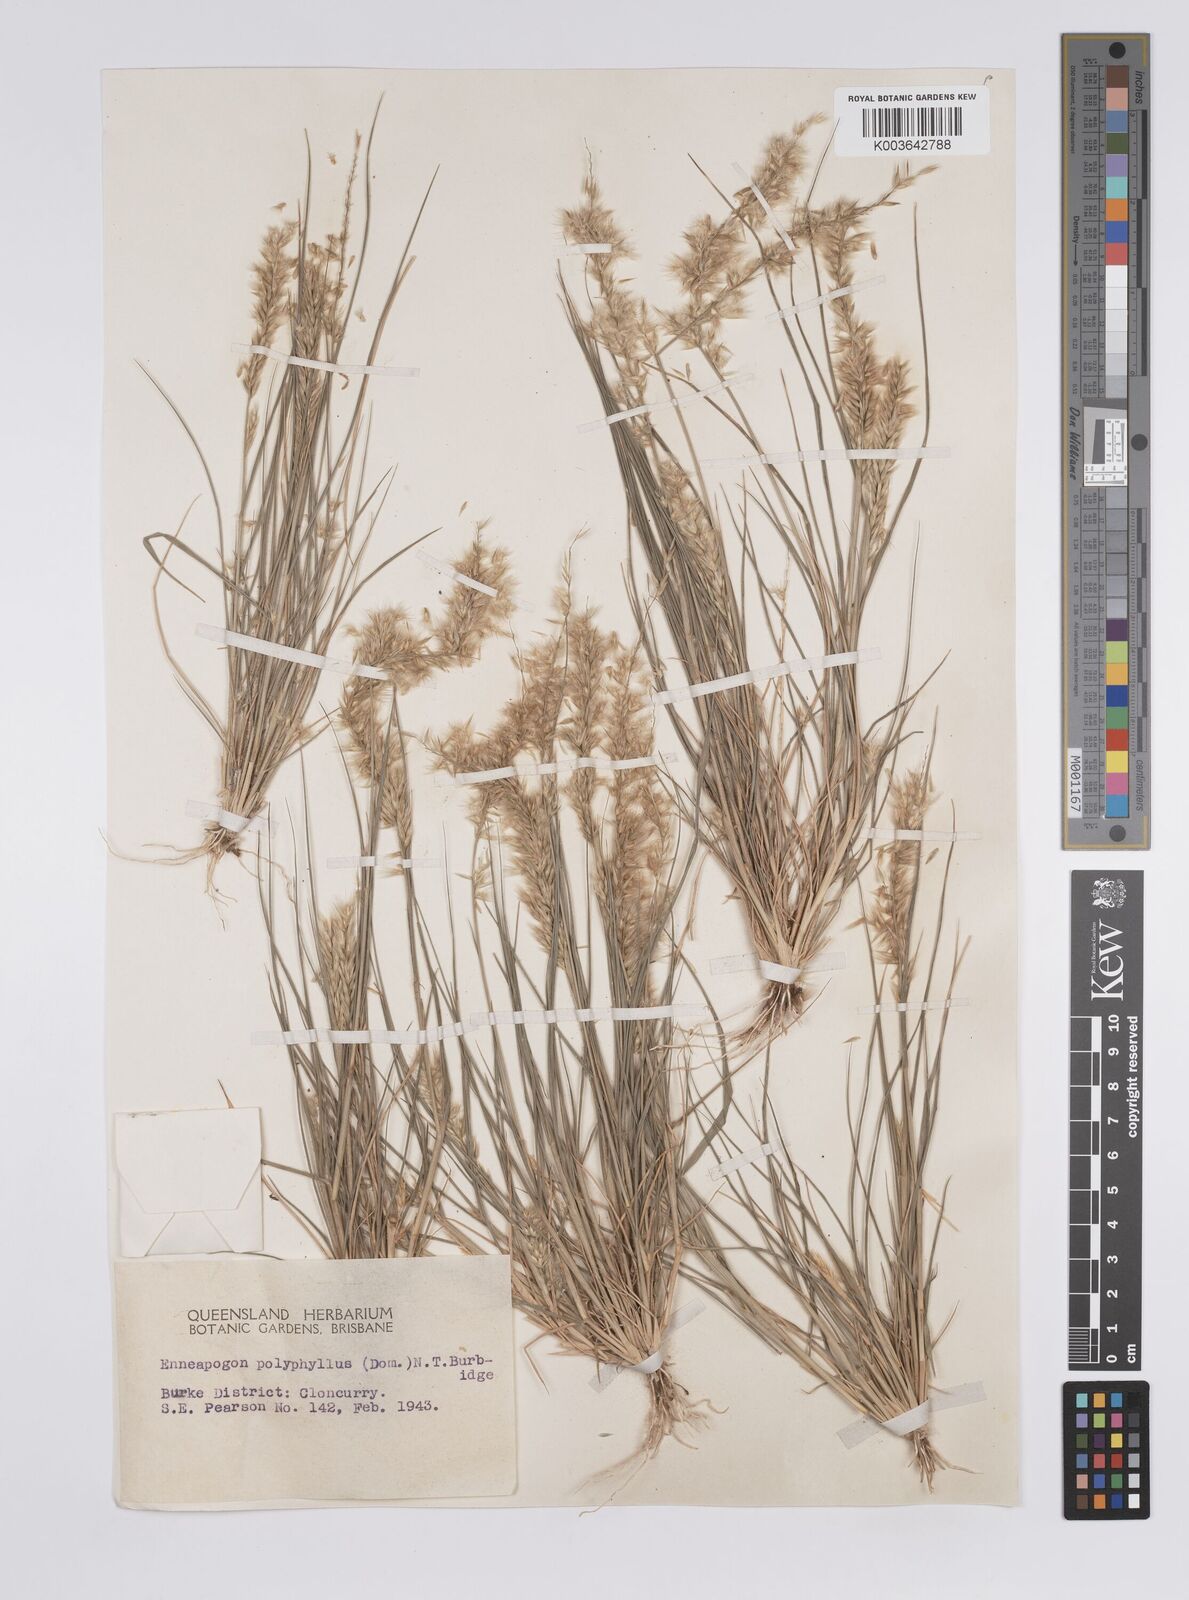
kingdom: Plantae
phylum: Tracheophyta
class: Liliopsida
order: Poales
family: Poaceae
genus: Enneapogon
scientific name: Enneapogon polyphyllus
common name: Leafy nineawn
